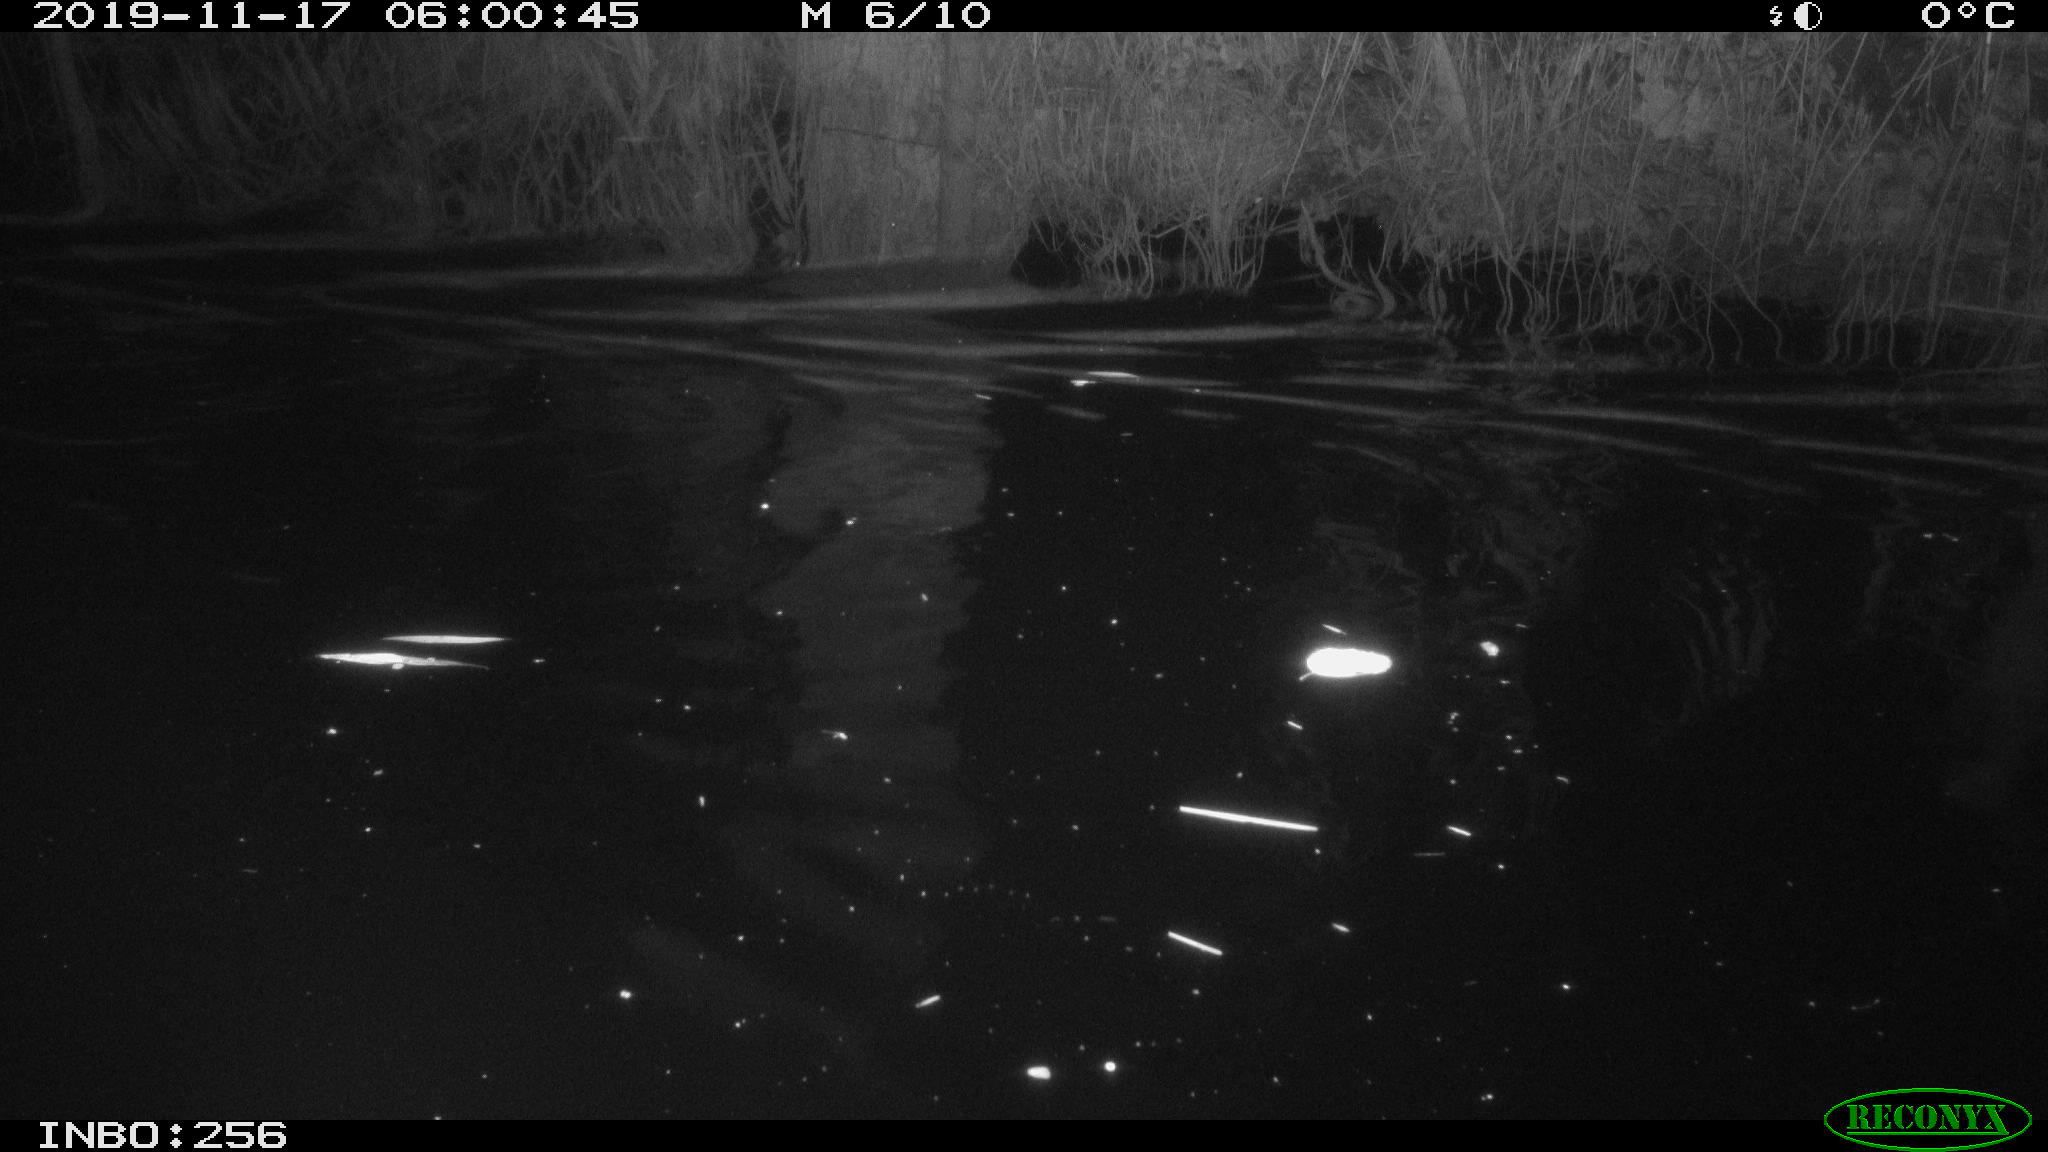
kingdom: Animalia
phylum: Chordata
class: Mammalia
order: Rodentia
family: Cricetidae
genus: Ondatra
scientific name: Ondatra zibethicus
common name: Muskrat
